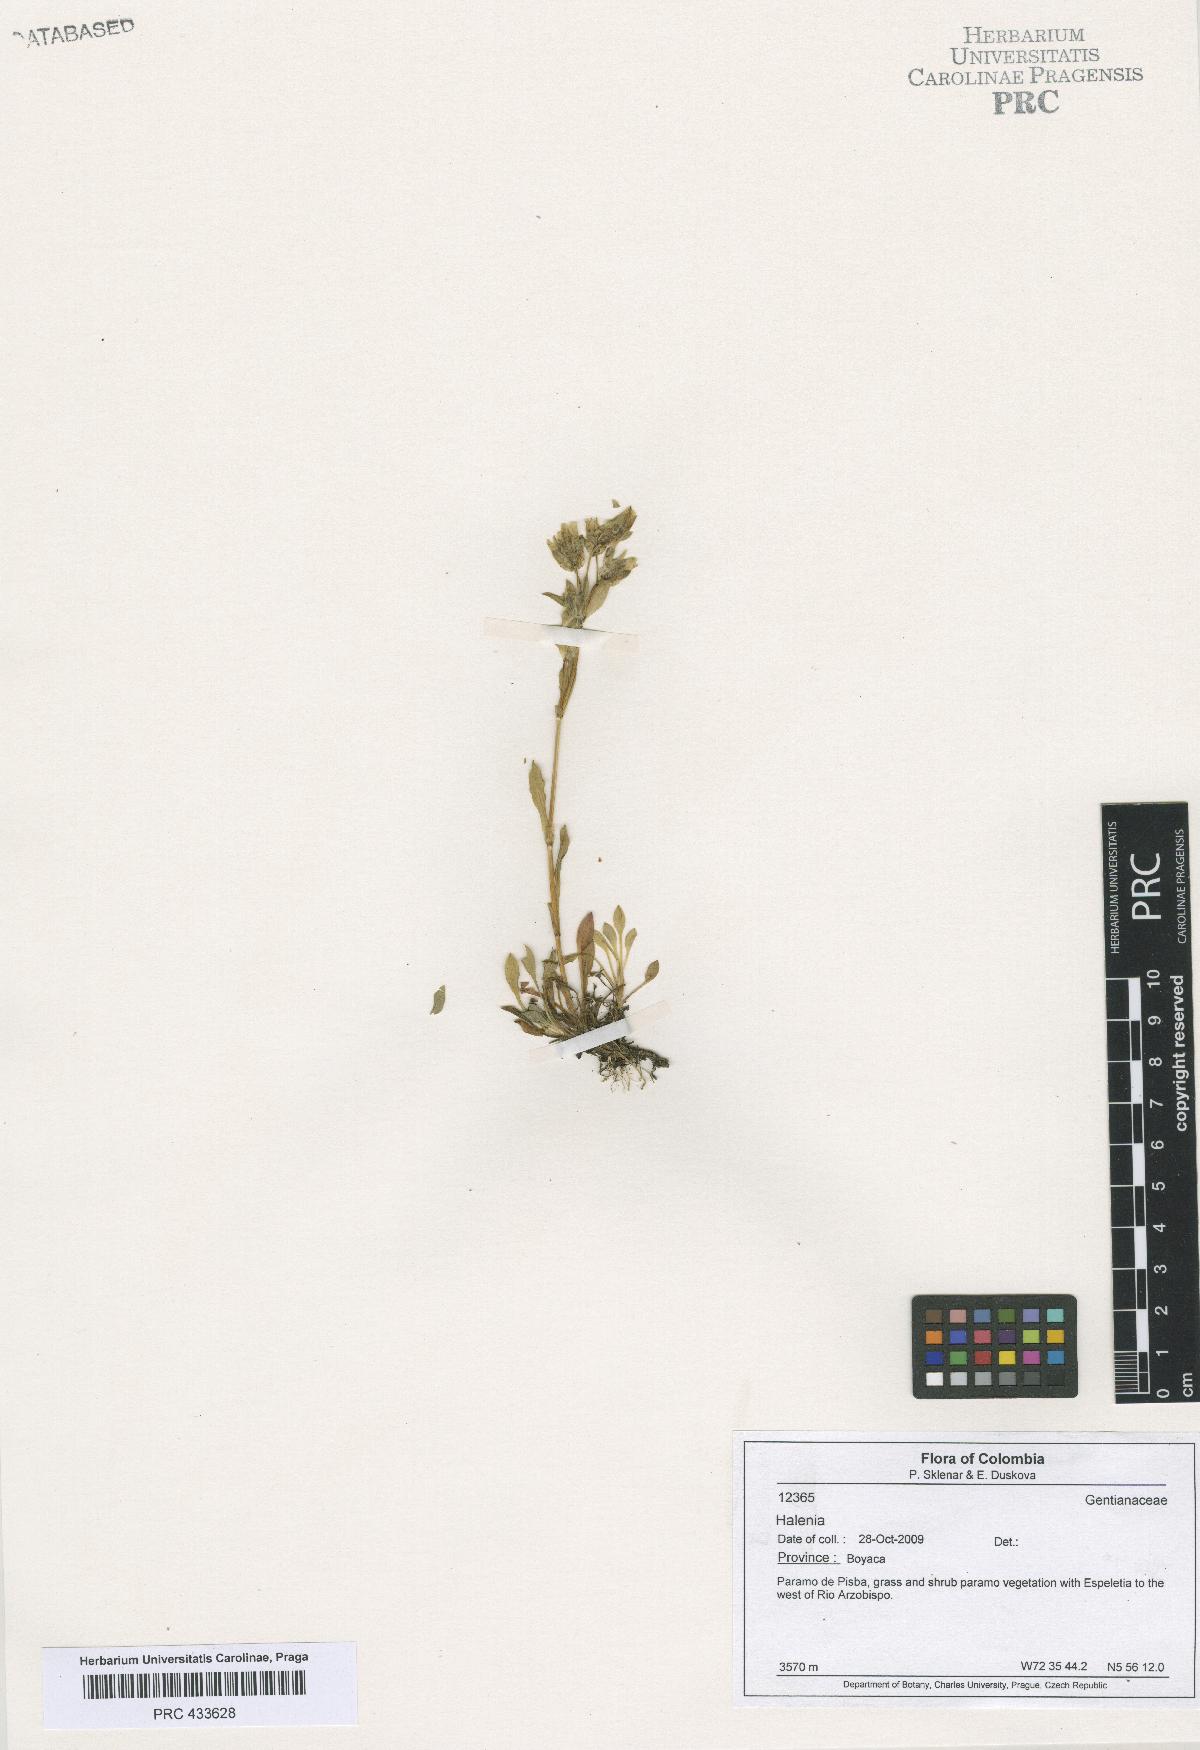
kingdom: Plantae
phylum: Tracheophyta
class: Magnoliopsida
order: Gentianales
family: Gentianaceae
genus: Halenia
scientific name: Halenia
